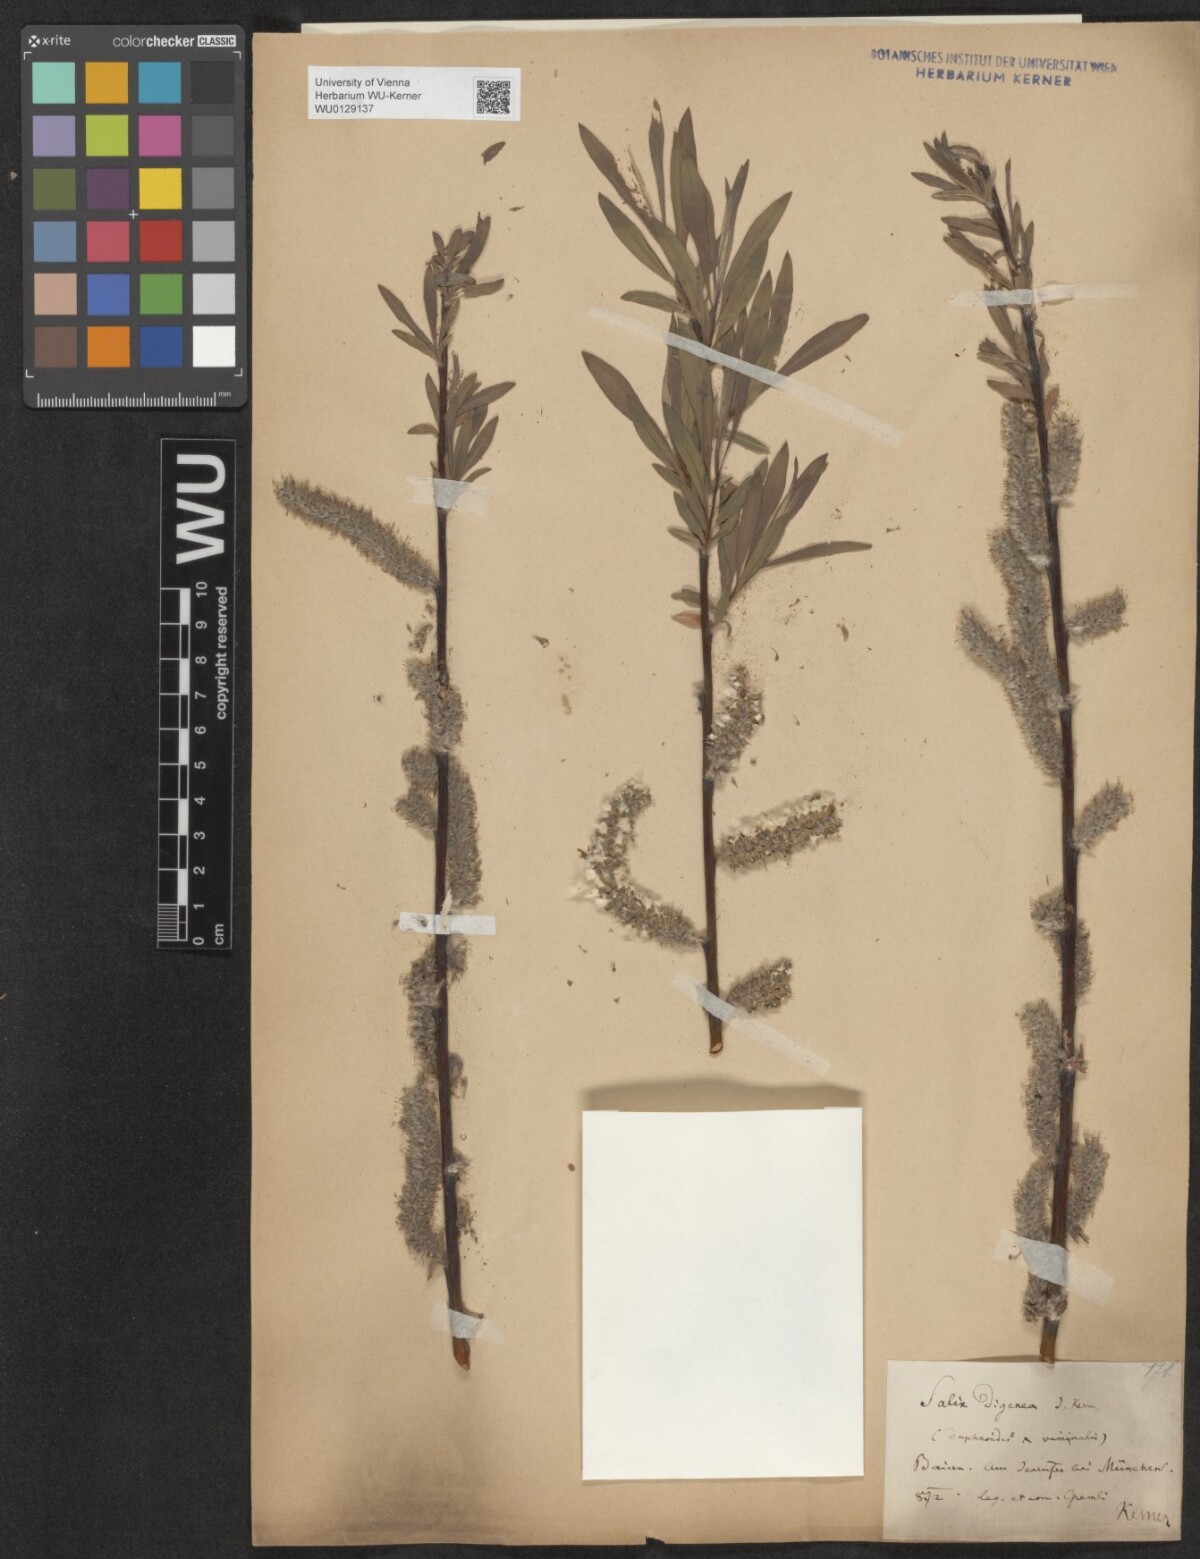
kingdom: Plantae
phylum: Tracheophyta
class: Magnoliopsida
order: Malpighiales
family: Salicaceae
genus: Salix
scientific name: Salix digenea
